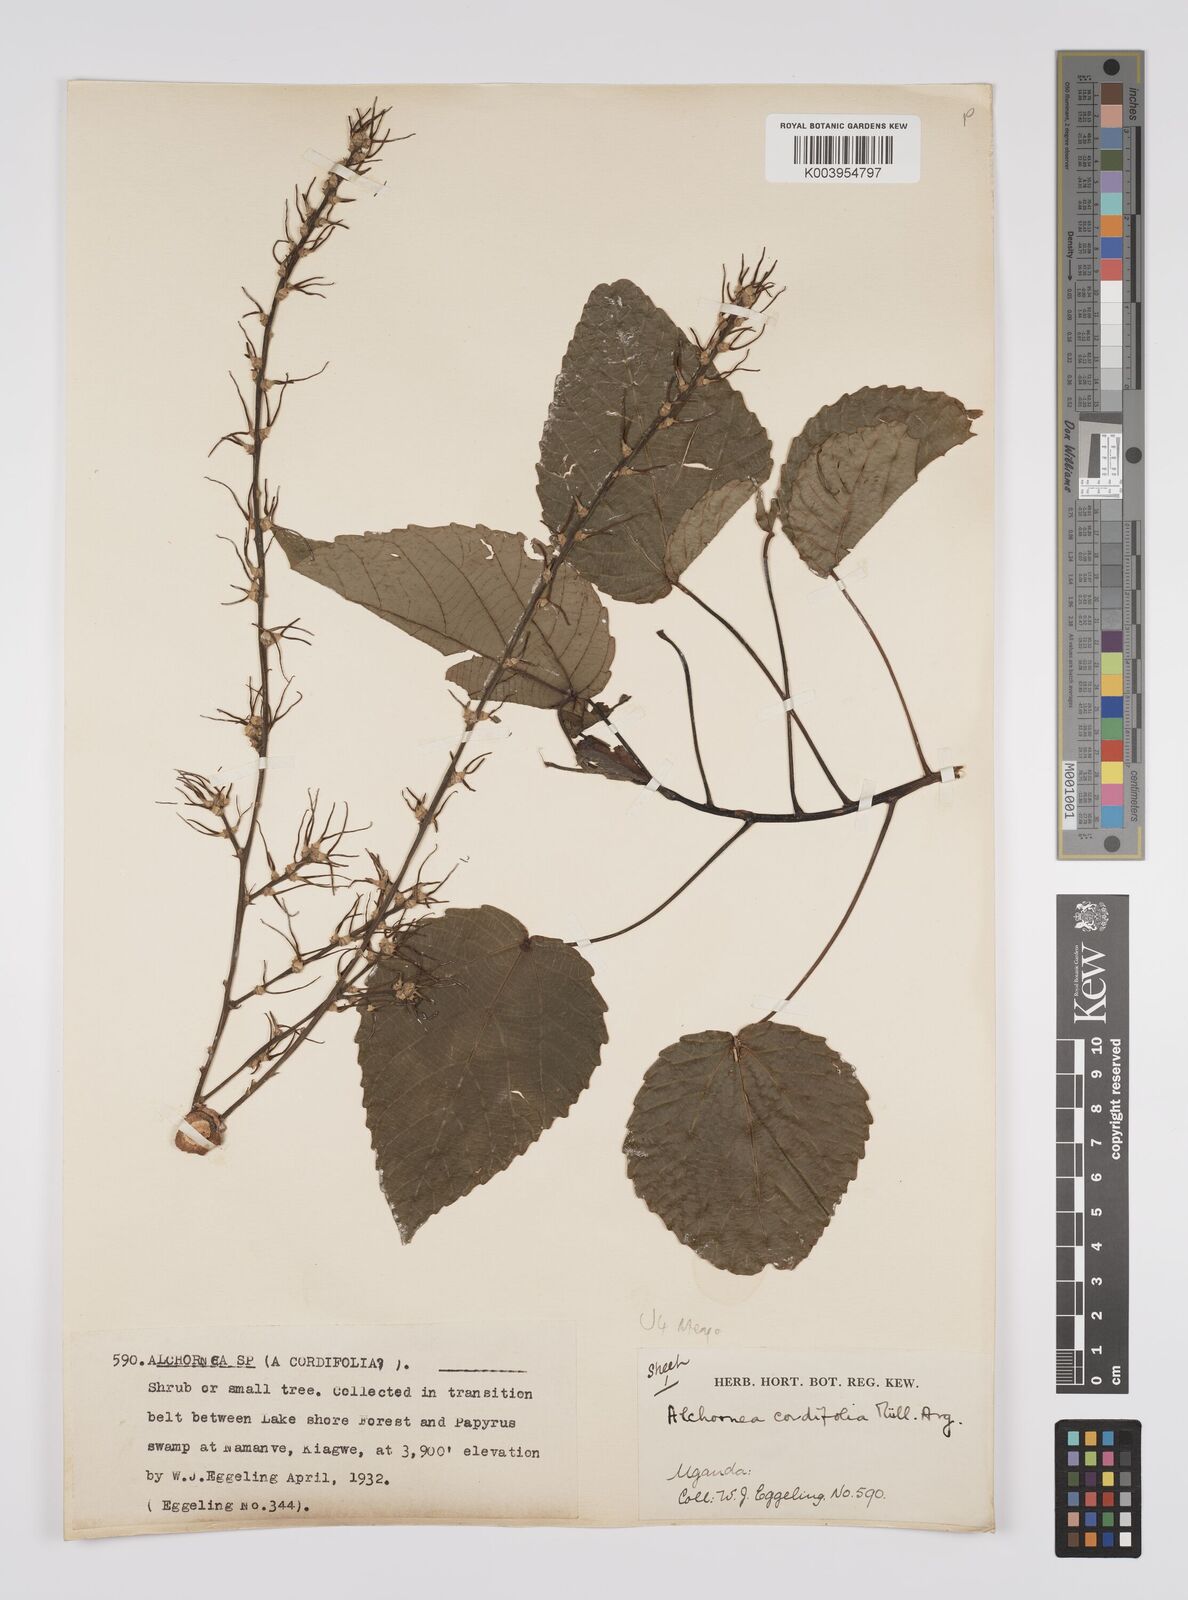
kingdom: Plantae
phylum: Tracheophyta
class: Magnoliopsida
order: Malpighiales
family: Euphorbiaceae
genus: Alchornea
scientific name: Alchornea cordifolia
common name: Christmasbush
